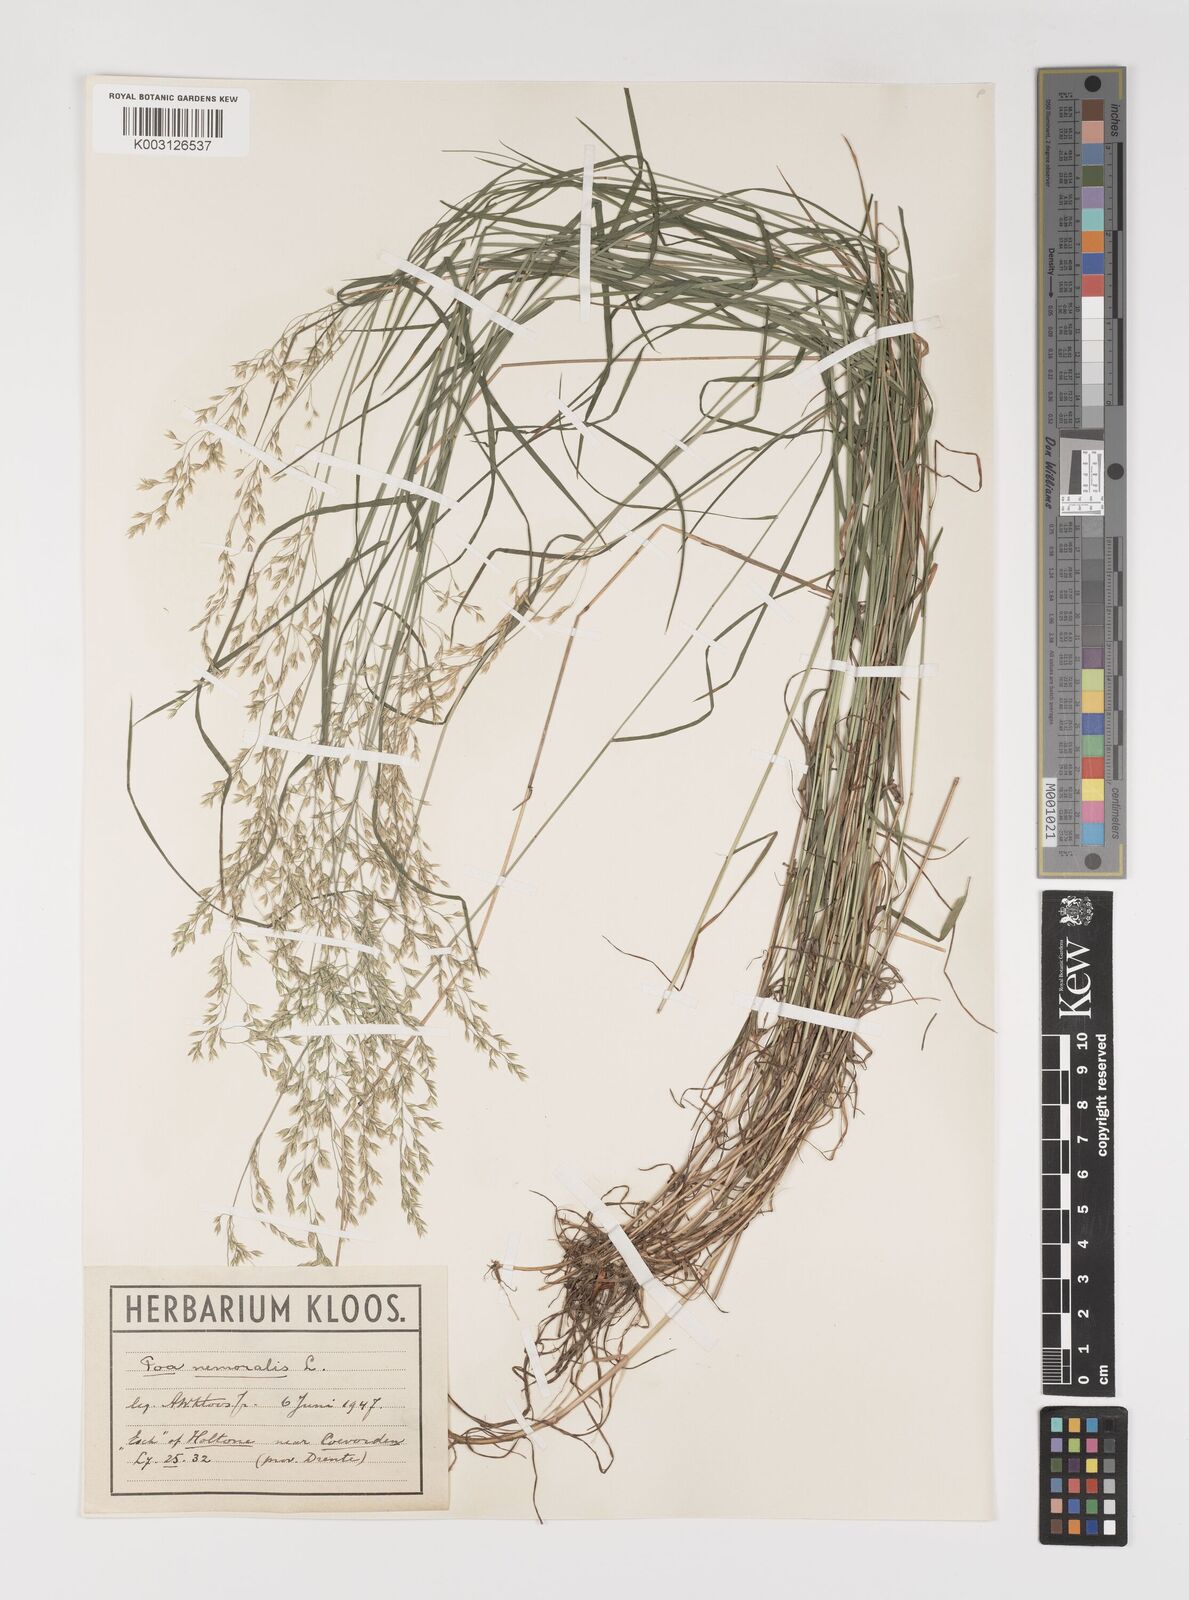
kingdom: Plantae
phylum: Tracheophyta
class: Liliopsida
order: Poales
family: Poaceae
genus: Poa
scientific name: Poa nemoralis
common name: Wood bluegrass
